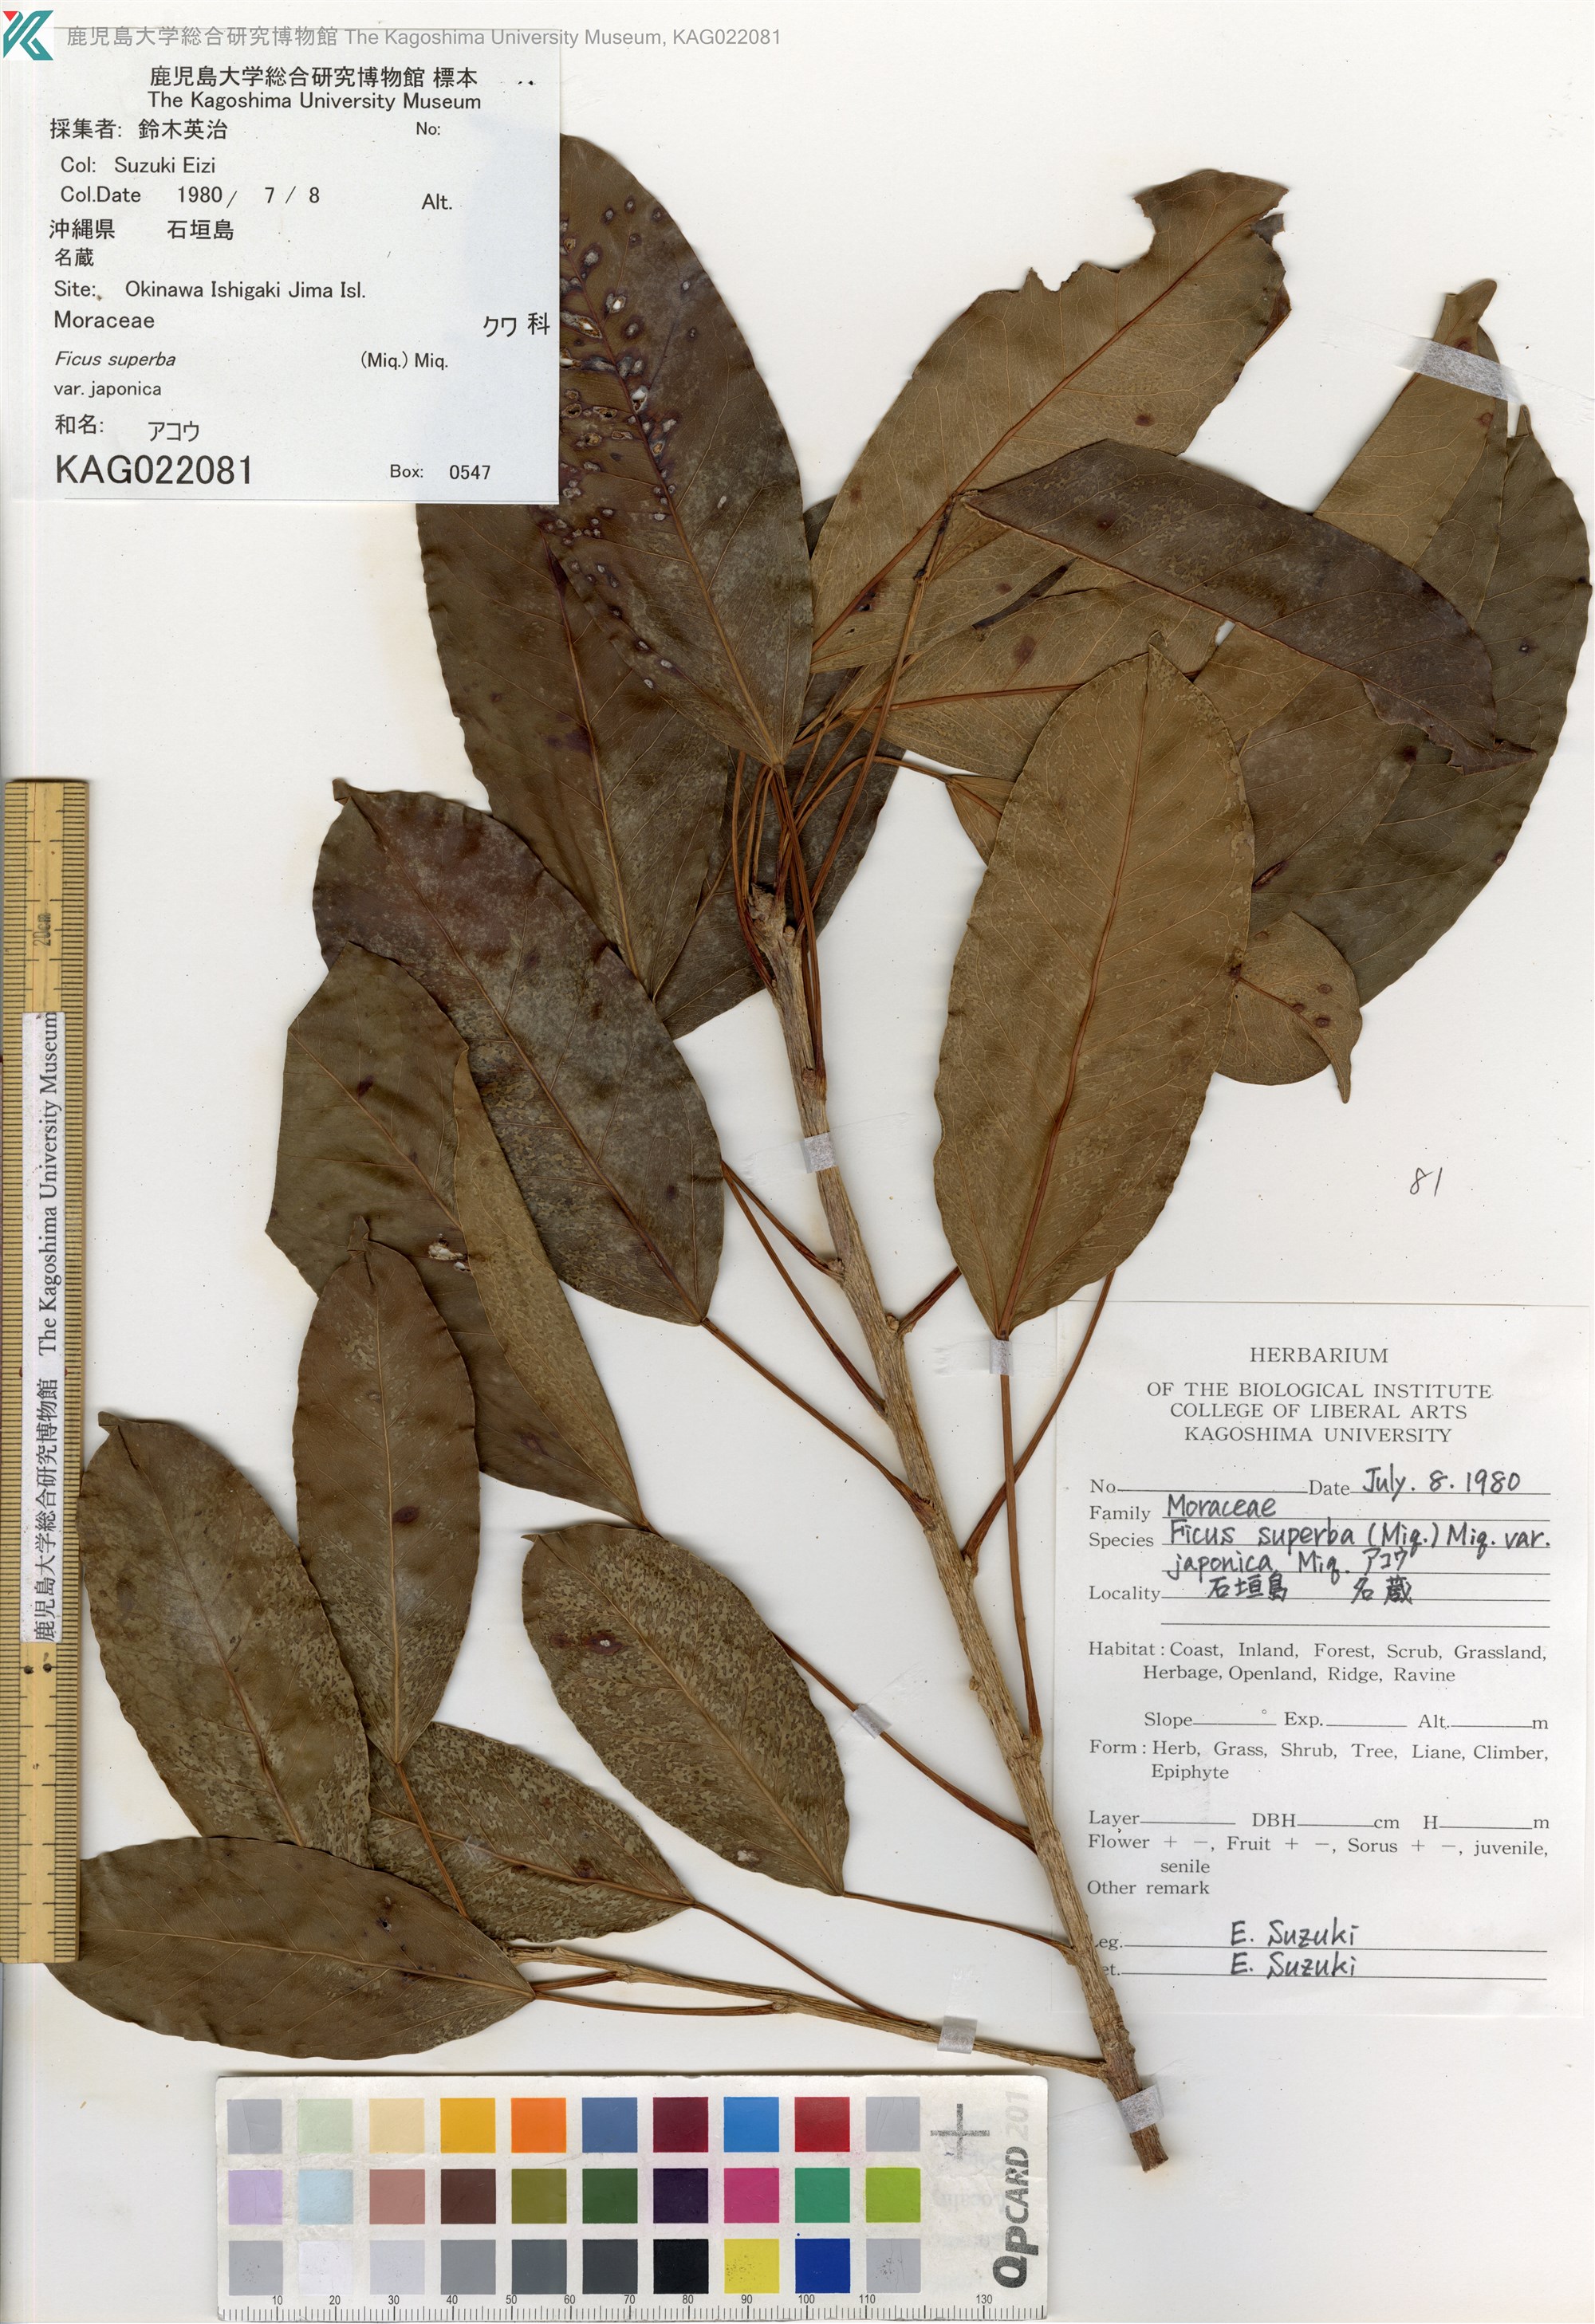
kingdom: Plantae
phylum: Tracheophyta
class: Magnoliopsida
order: Rosales
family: Moraceae
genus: Ficus
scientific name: Ficus subpisocarpa
